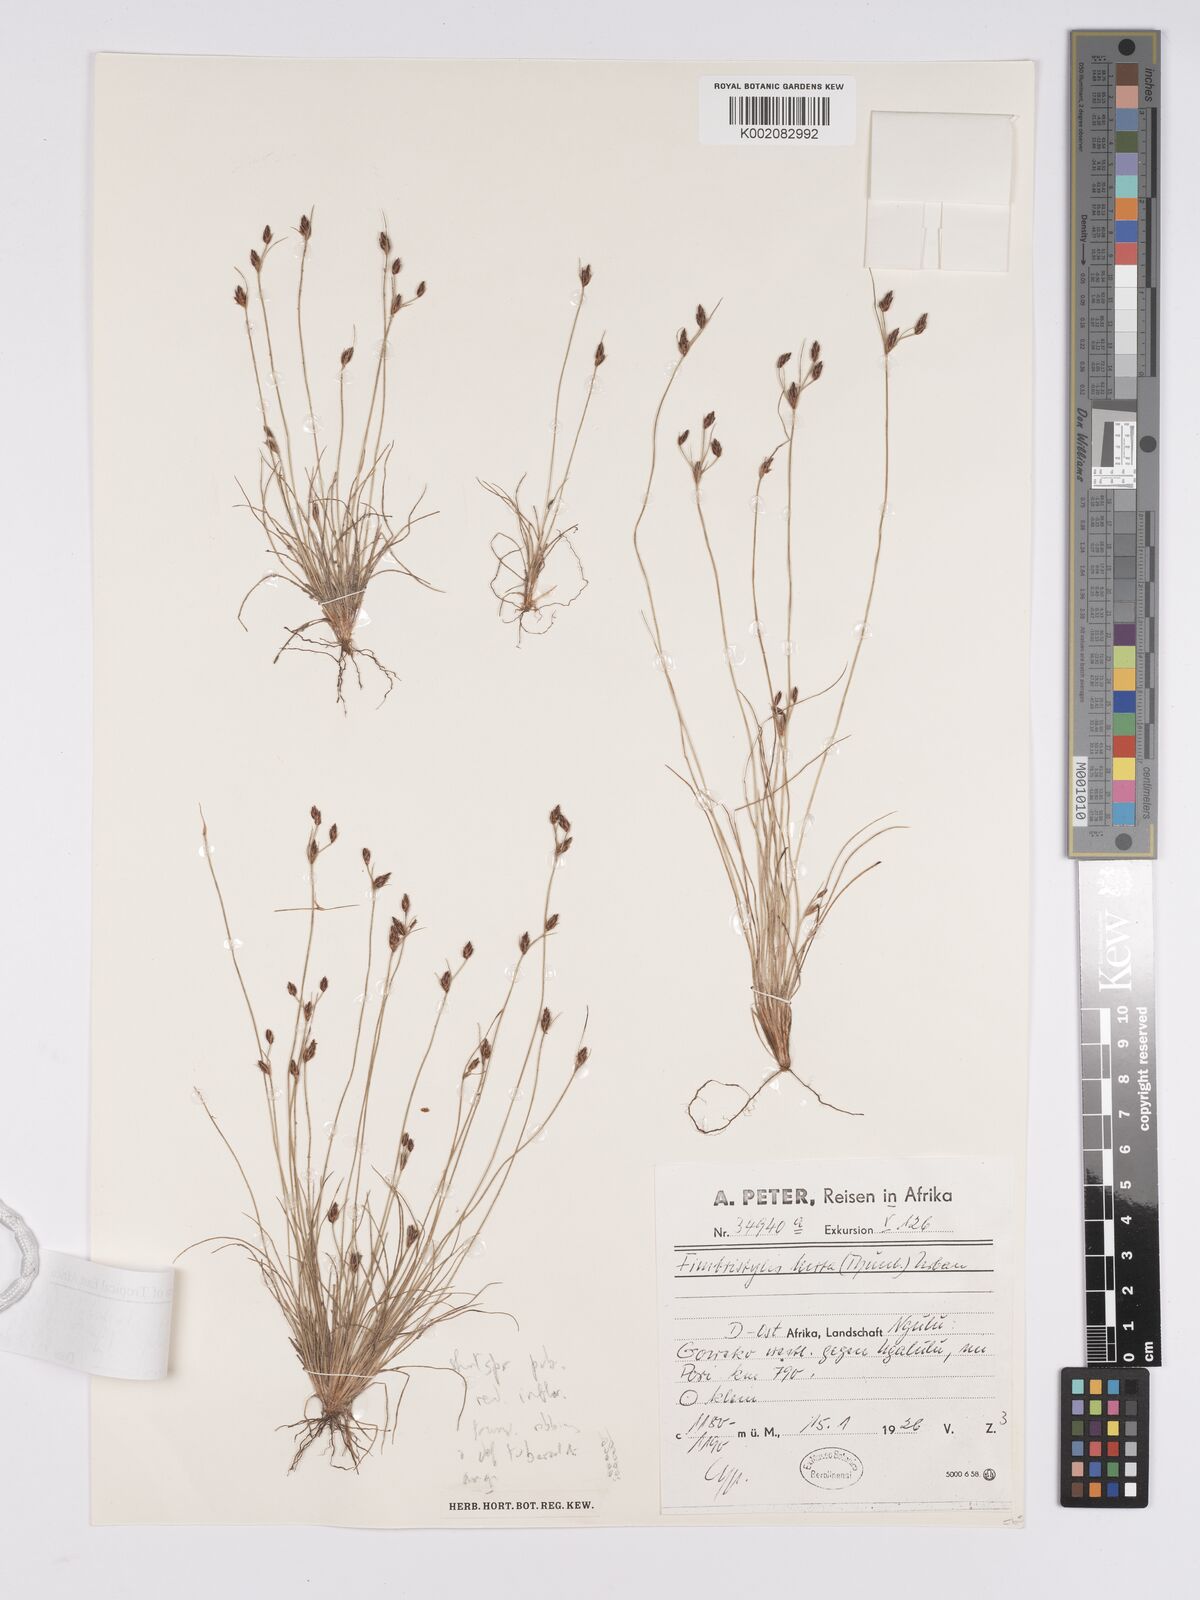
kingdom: Plantae
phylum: Tracheophyta
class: Liliopsida
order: Poales
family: Cyperaceae
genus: Bulbostylis
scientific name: Bulbostylis hispidula
